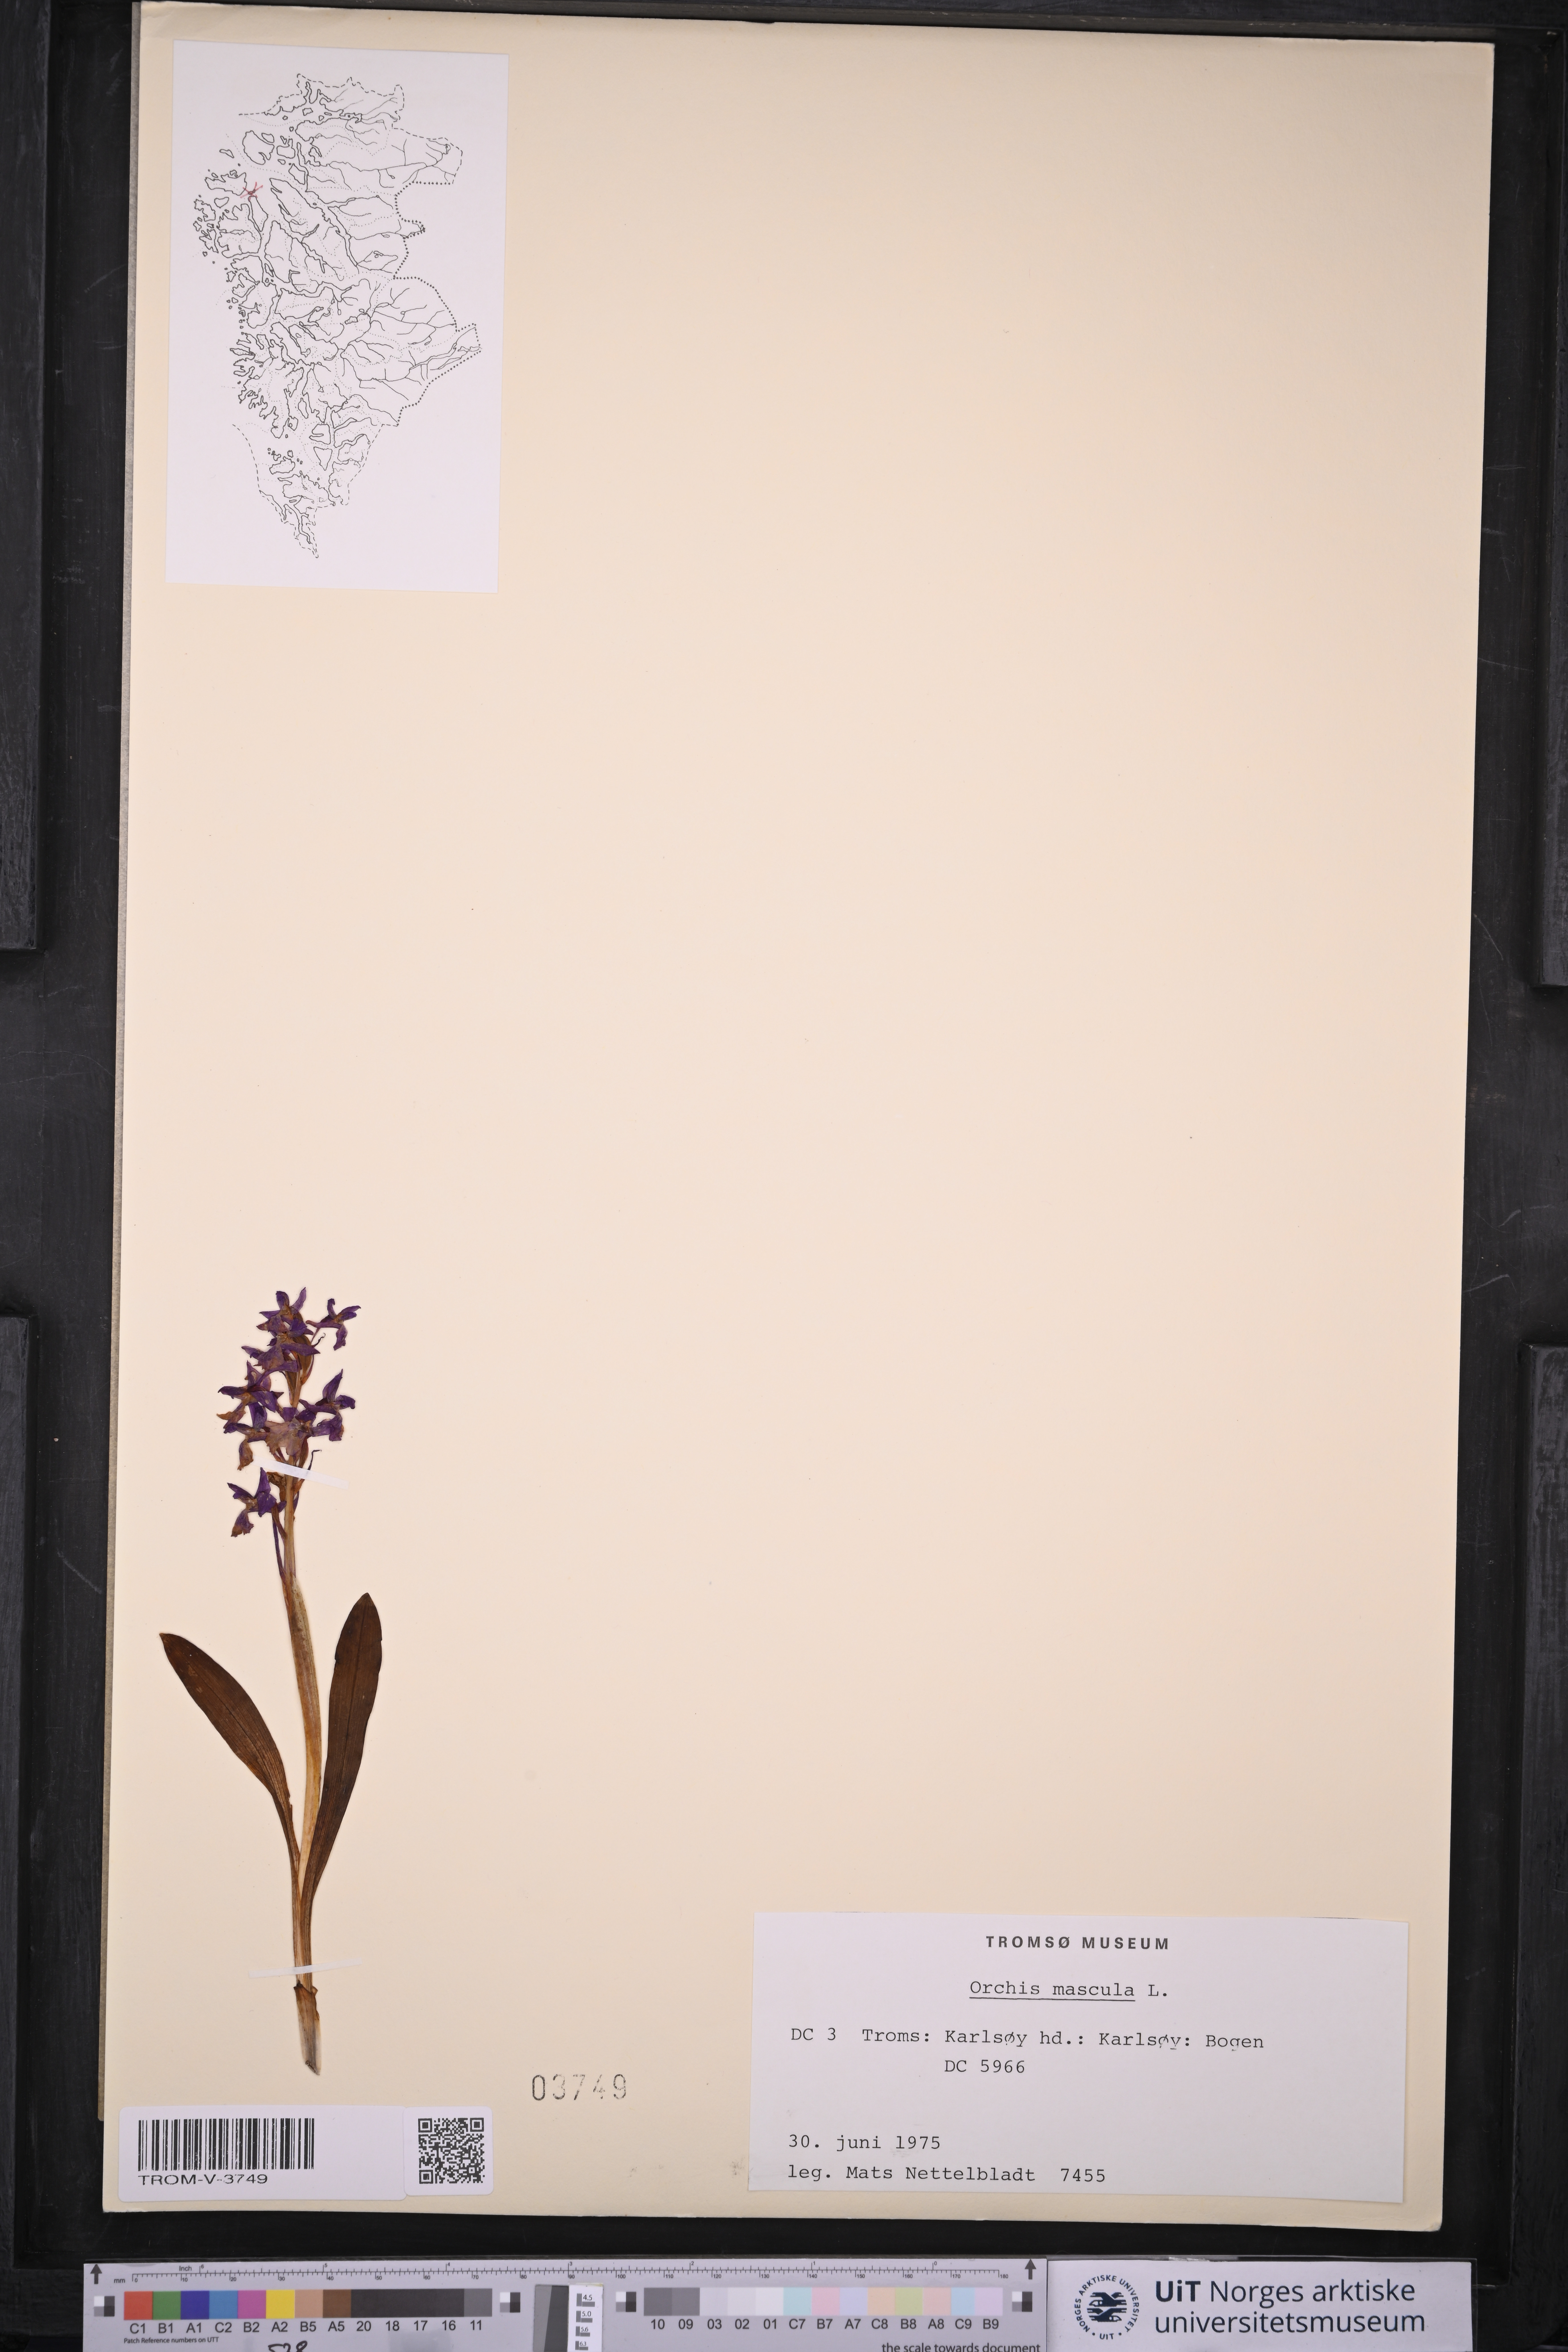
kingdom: Plantae
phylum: Tracheophyta
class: Liliopsida
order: Asparagales
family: Orchidaceae
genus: Orchis
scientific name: Orchis mascula
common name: Early-purple orchid
